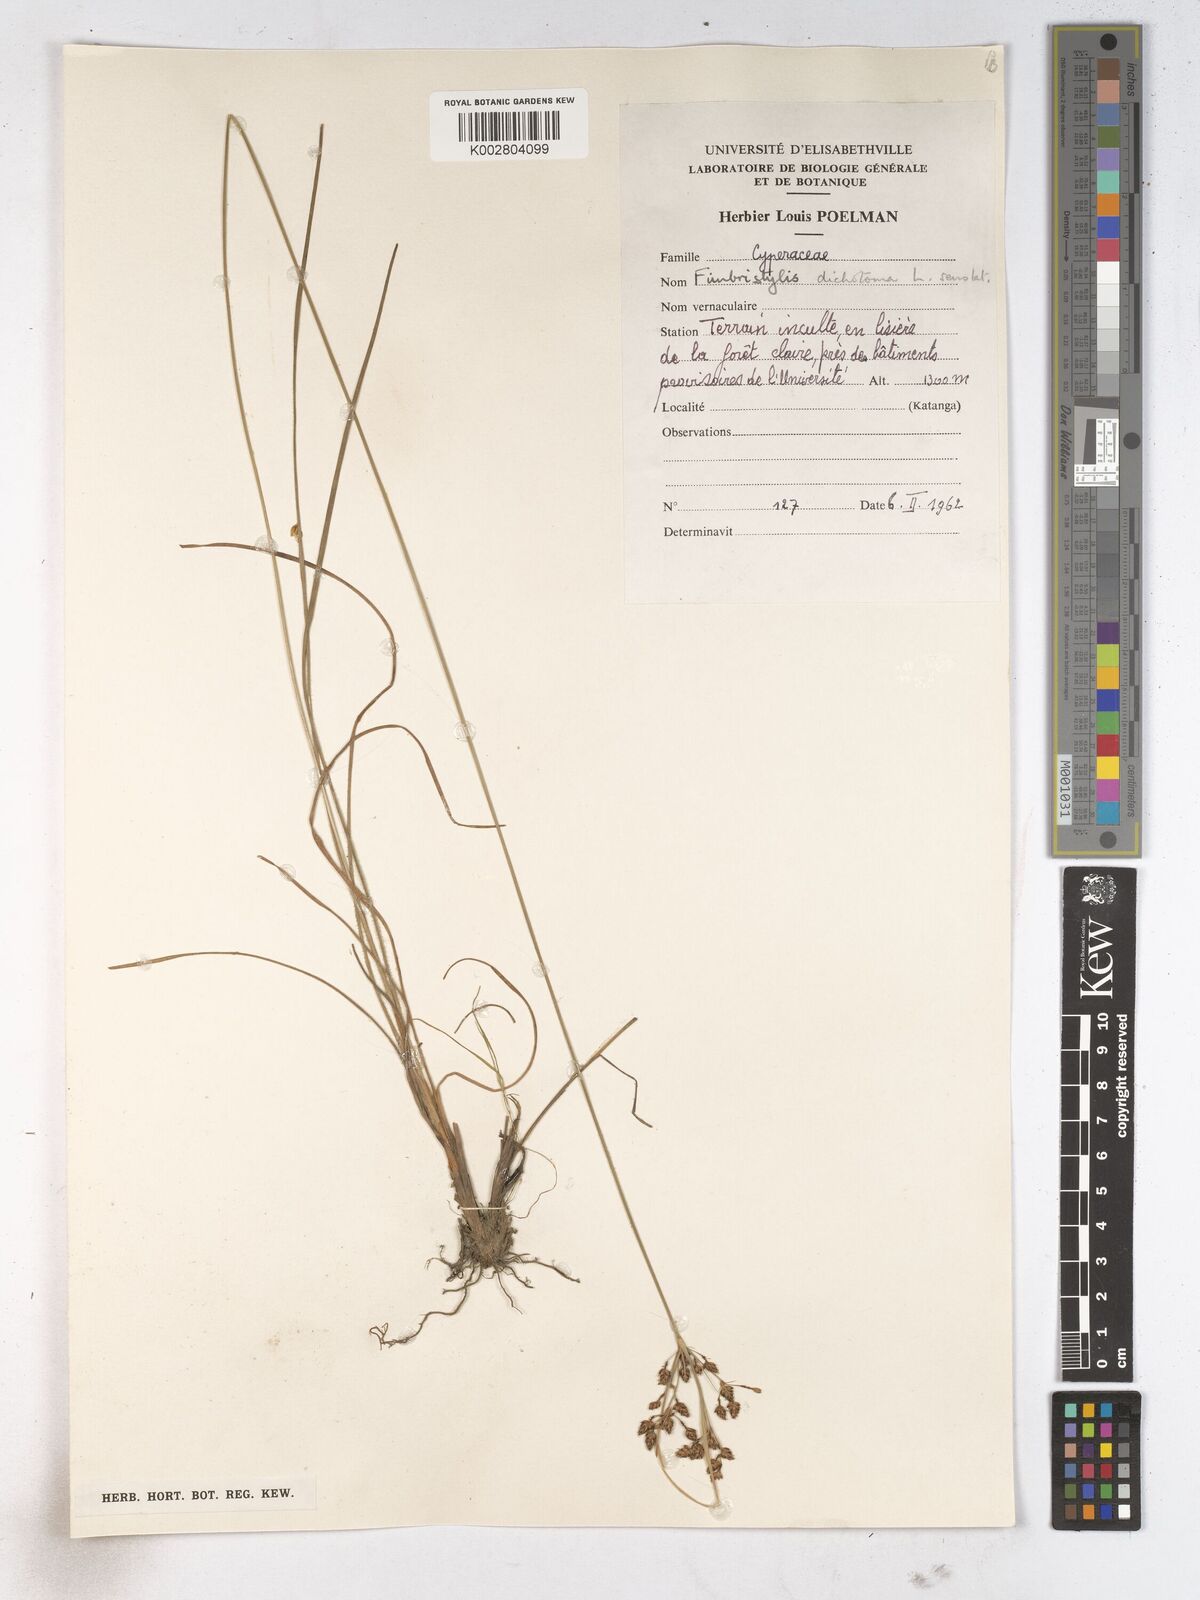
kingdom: Plantae
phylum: Tracheophyta
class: Liliopsida
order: Poales
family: Cyperaceae
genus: Fimbristylis
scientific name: Fimbristylis dichotoma
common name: Forked fimbry
